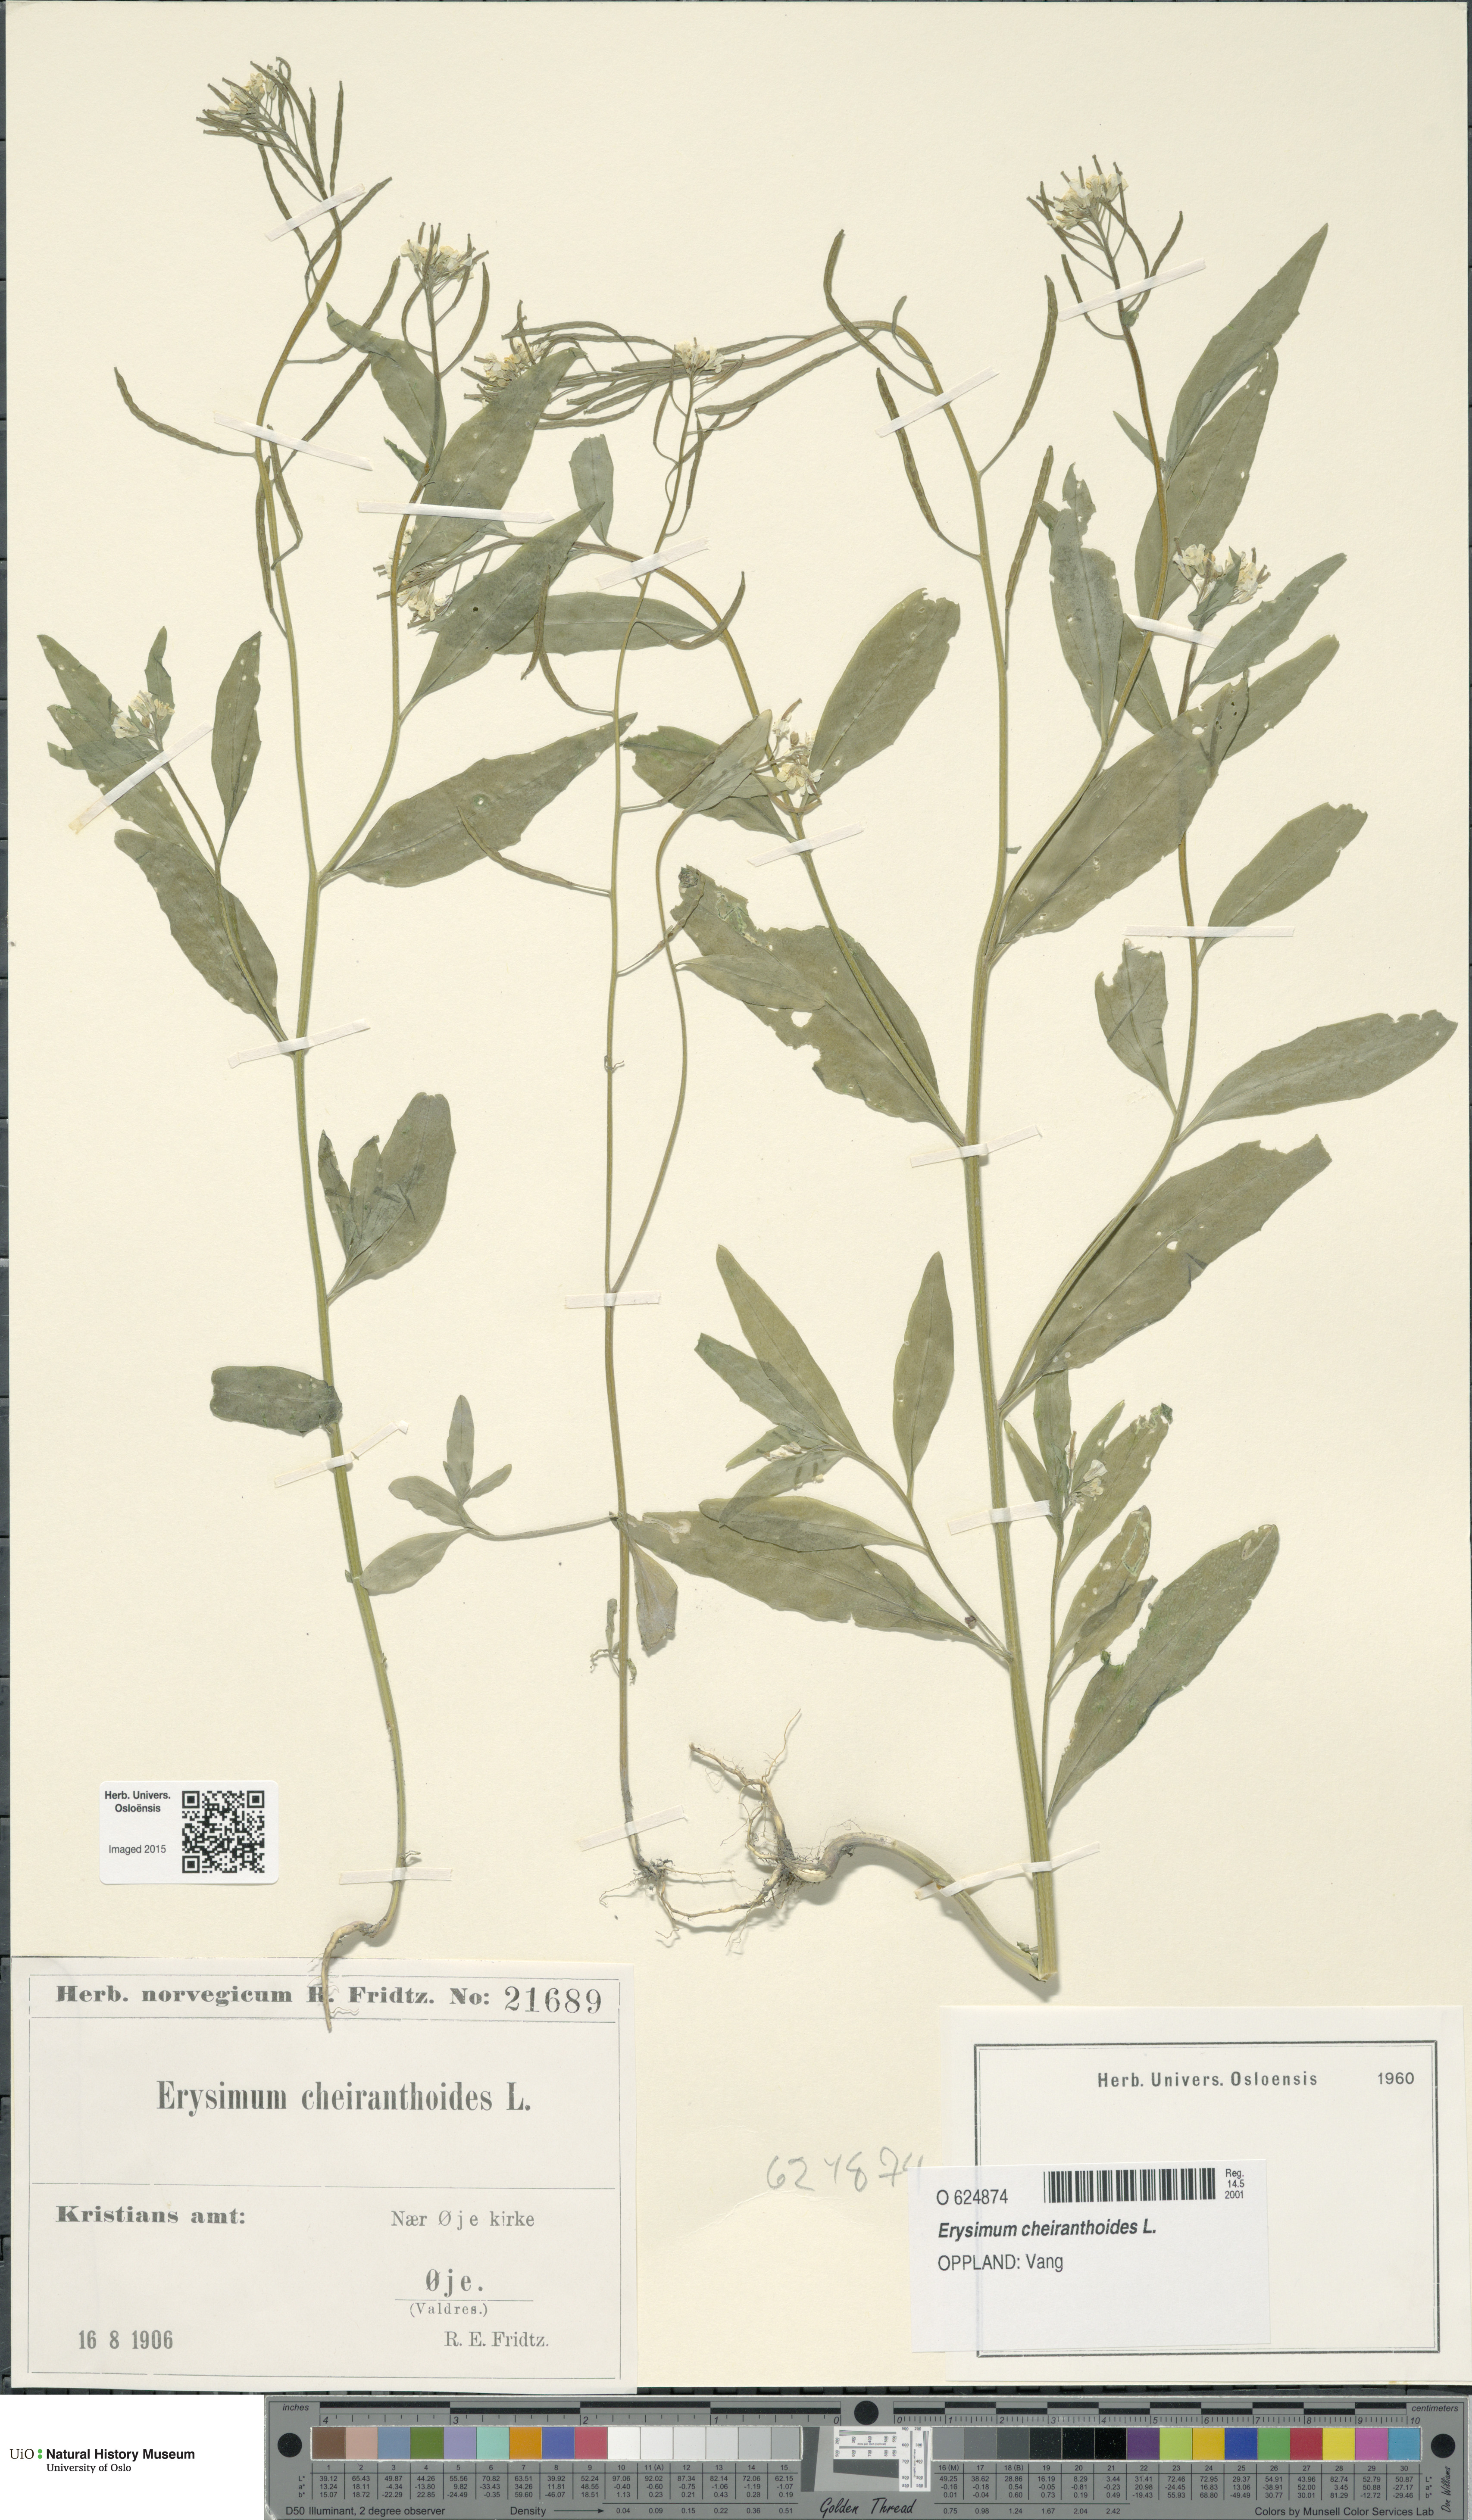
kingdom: Plantae
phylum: Tracheophyta
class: Magnoliopsida
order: Brassicales
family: Brassicaceae
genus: Erysimum
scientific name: Erysimum cheiranthoides
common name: Treacle mustard
